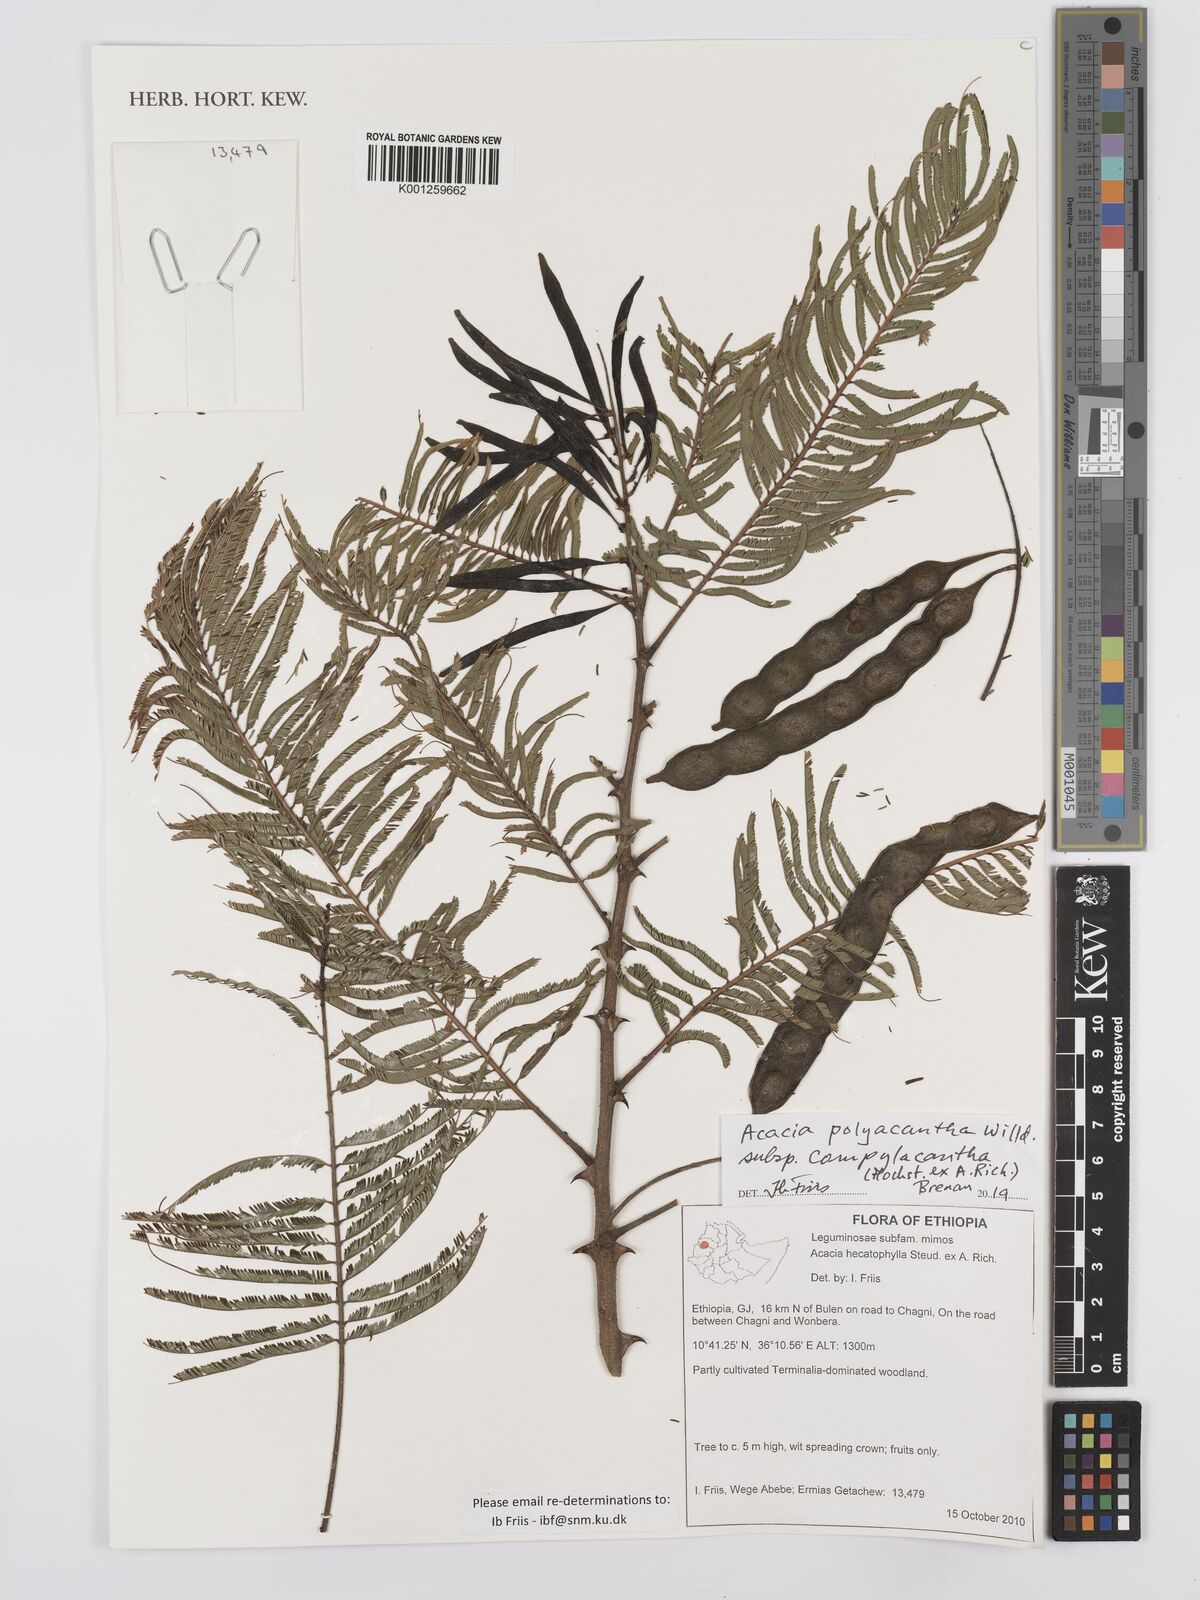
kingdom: Plantae
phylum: Tracheophyta
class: Magnoliopsida
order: Fabales
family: Fabaceae
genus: Senegalia
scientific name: Senegalia hecatophylla
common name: Long pod
